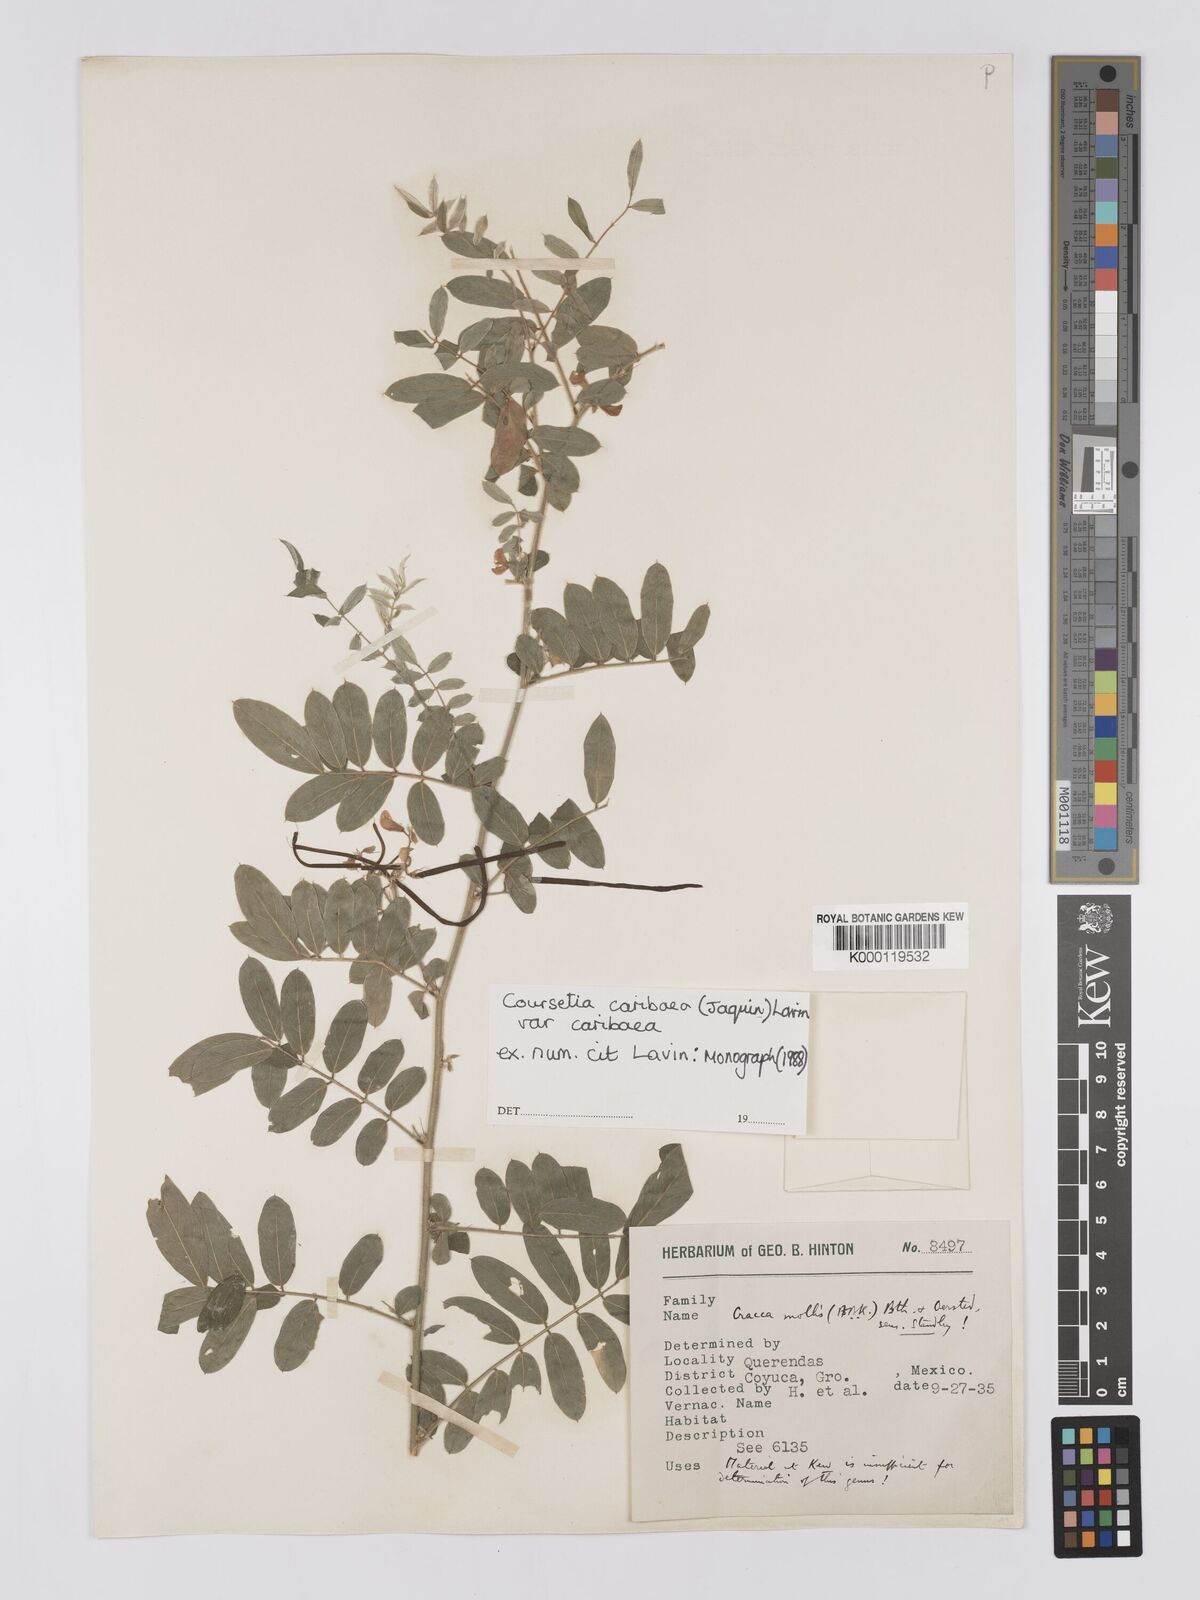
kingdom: Plantae
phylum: Tracheophyta
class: Magnoliopsida
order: Fabales
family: Fabaceae
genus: Coursetia
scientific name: Coursetia caribaea
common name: Anil falso
